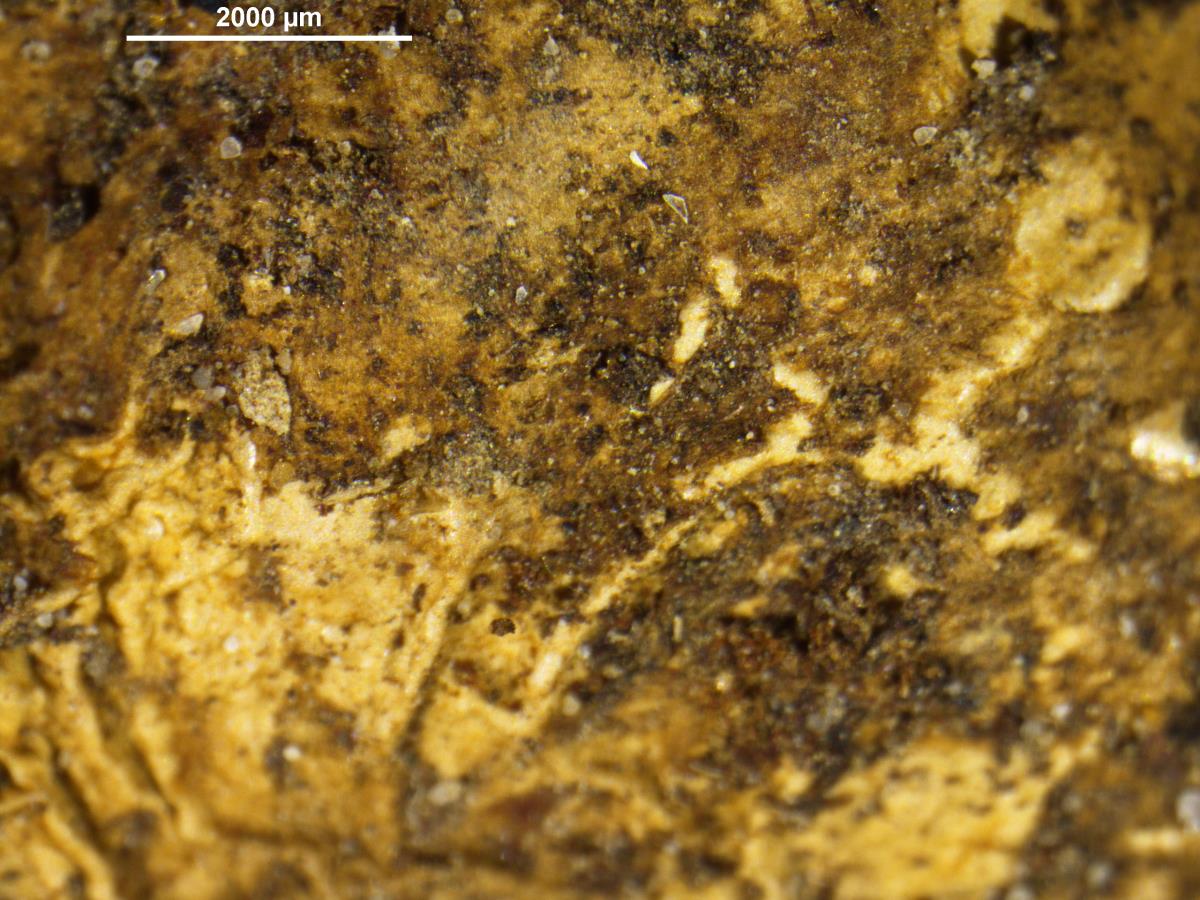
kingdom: Fungi
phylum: Basidiomycota
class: Agaricomycetes
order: Geastrales
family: Geastraceae
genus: Geastrum
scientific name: Geastrum fimbriatum
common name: Sessile earthstar
